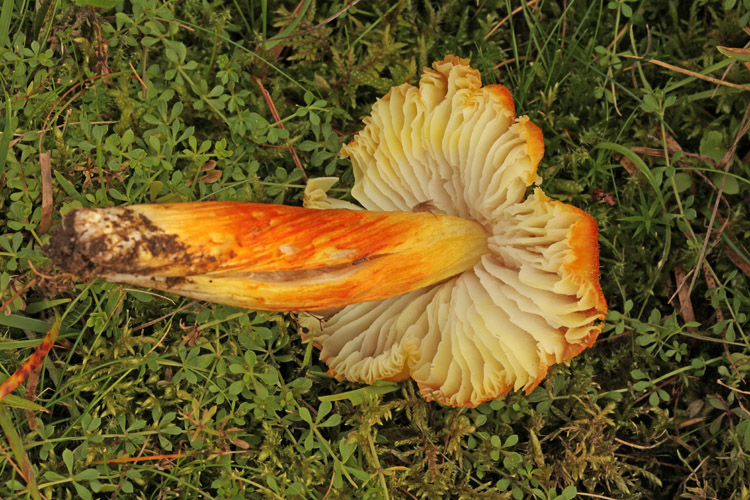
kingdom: Fungi
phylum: Basidiomycota
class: Agaricomycetes
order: Agaricales
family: Hygrophoraceae
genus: Hygrocybe
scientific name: Hygrocybe intermedia
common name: trævlet vokshat
